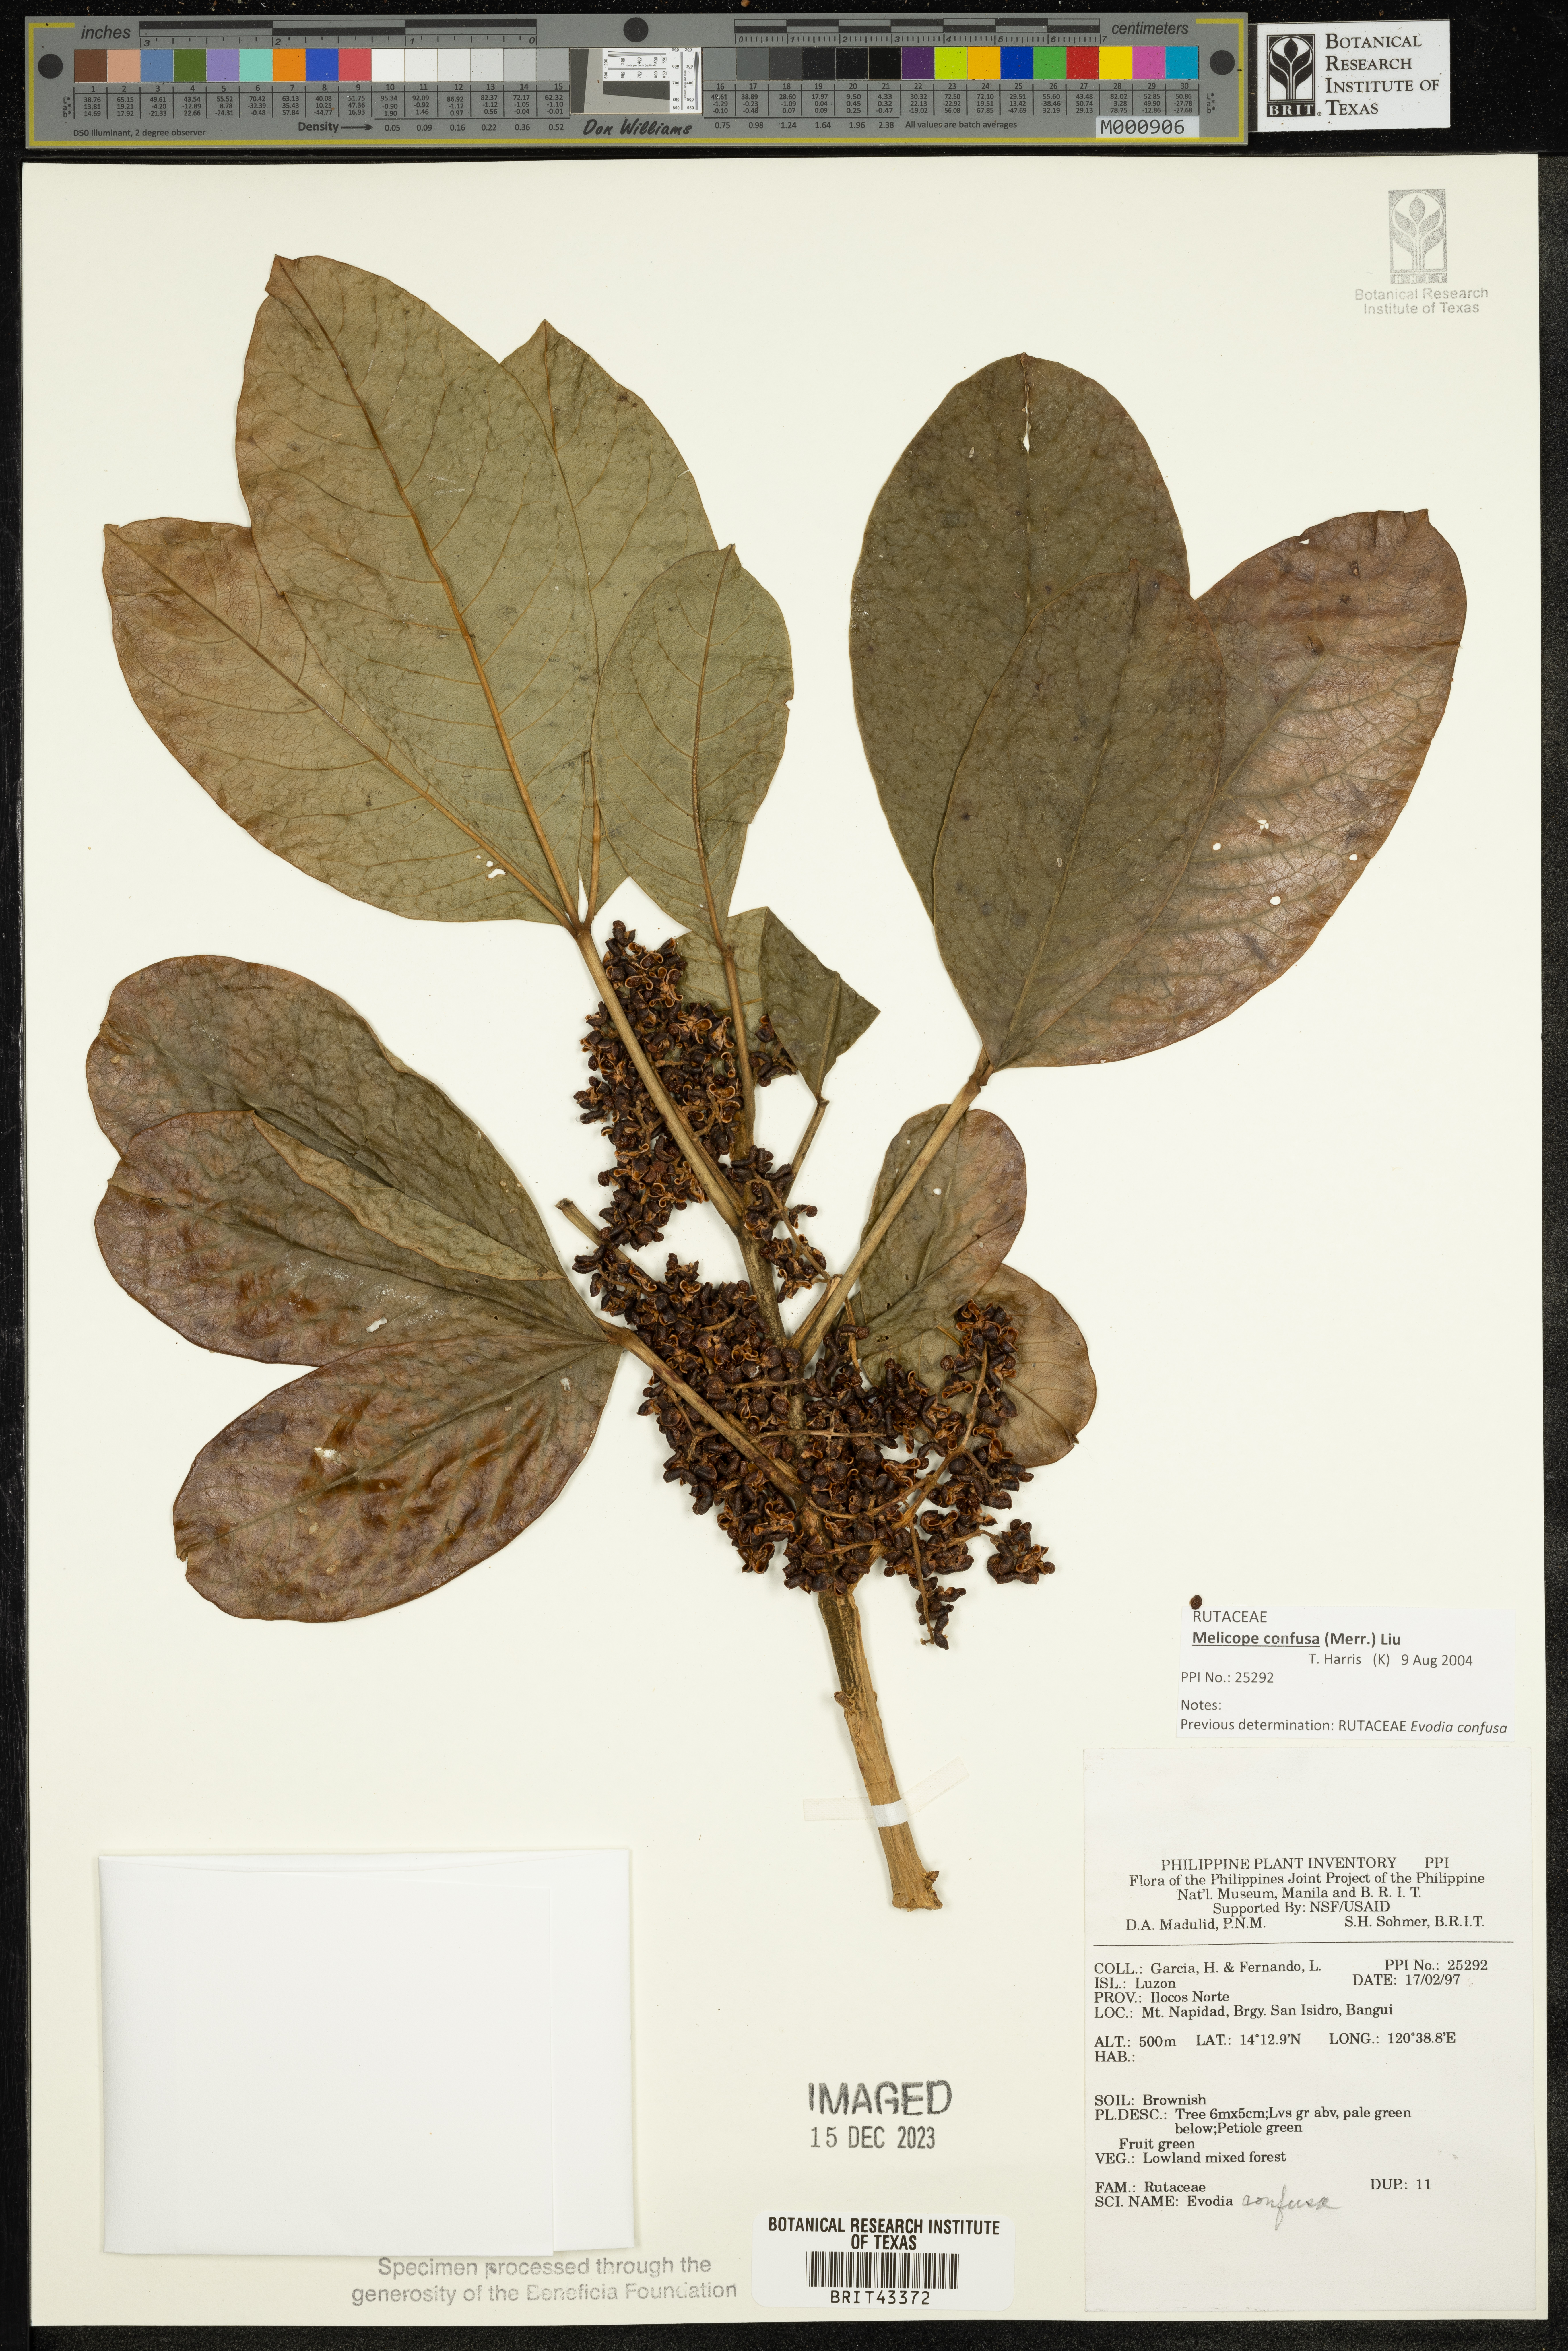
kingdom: Plantae
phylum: Tracheophyta
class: Magnoliopsida
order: Sapindales
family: Rutaceae
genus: Melicope
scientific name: Melicope frutescens
